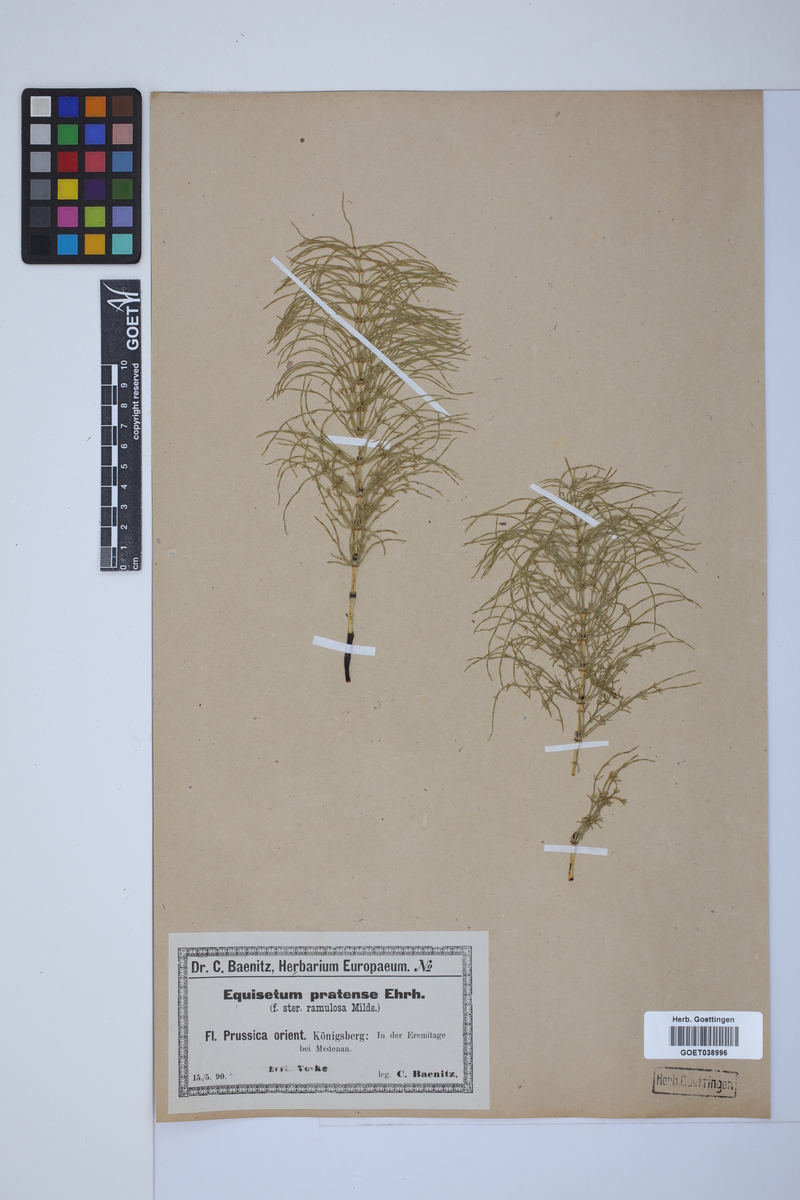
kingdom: Plantae
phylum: Tracheophyta
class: Polypodiopsida
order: Equisetales
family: Equisetaceae
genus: Equisetum
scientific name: Equisetum pratense
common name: Meadow horsetail
